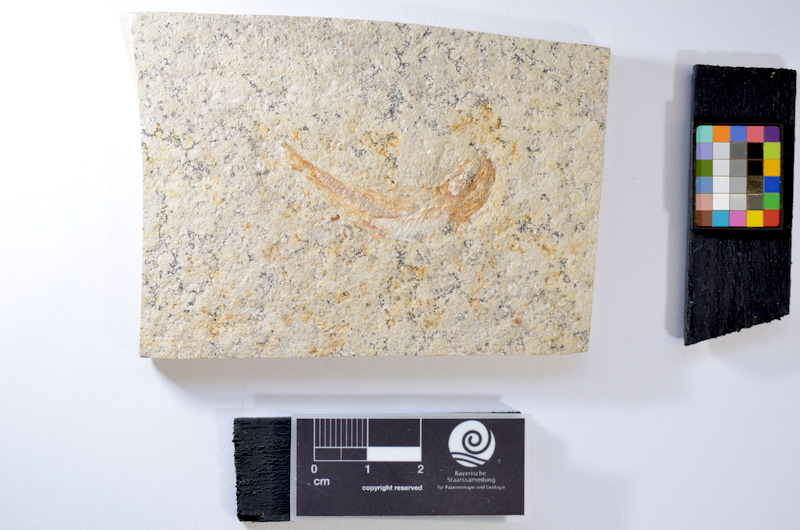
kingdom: Animalia
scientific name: Animalia
